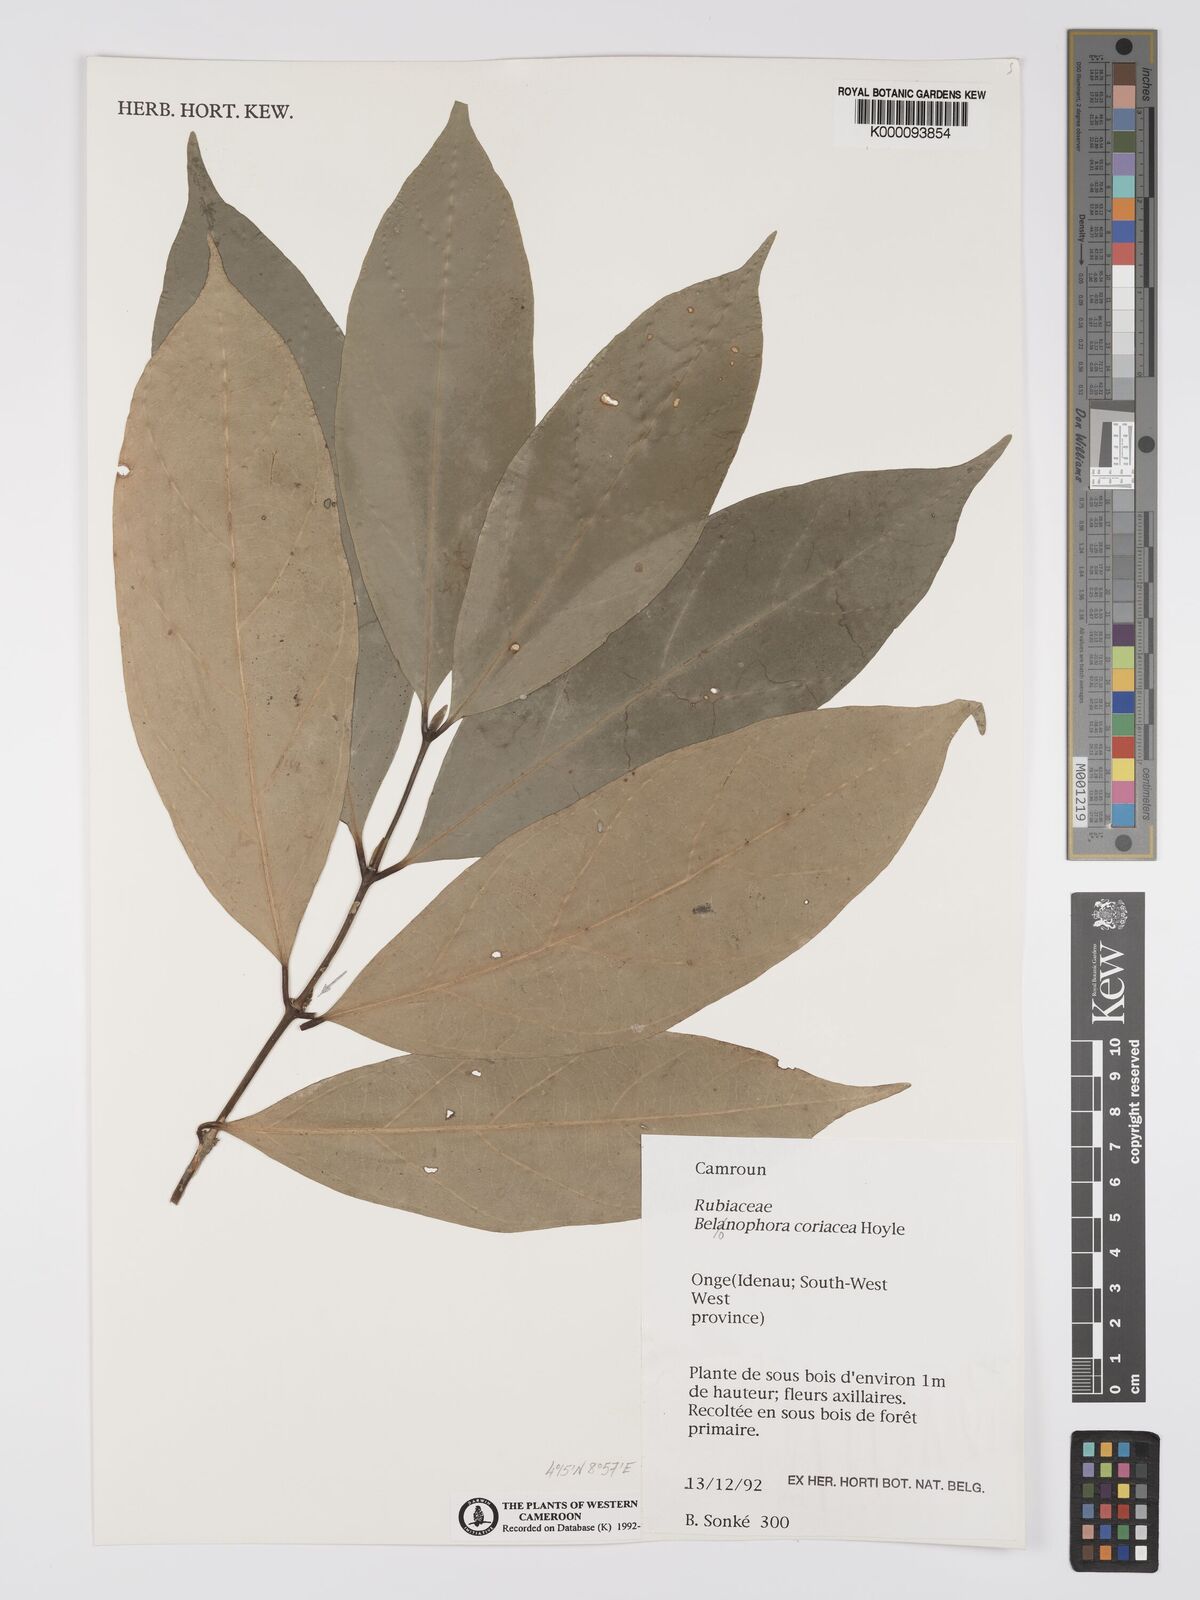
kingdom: Plantae
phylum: Tracheophyta
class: Magnoliopsida
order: Gentianales
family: Rubiaceae
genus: Belonophora
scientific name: Belonophora coriacea
